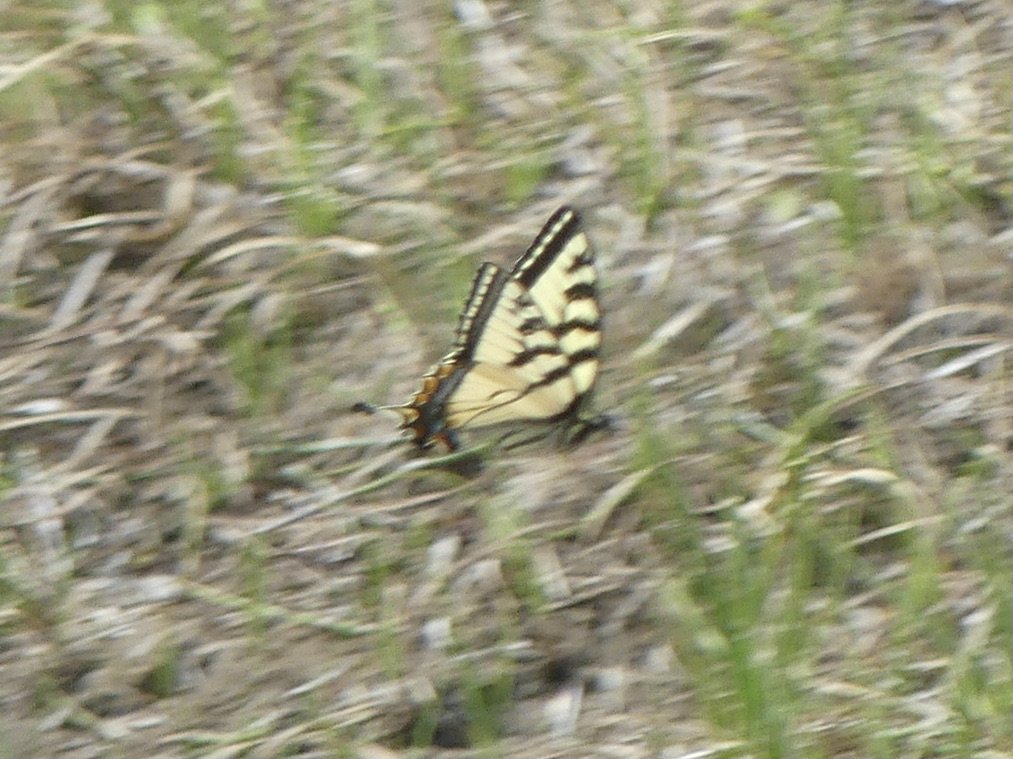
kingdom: Animalia
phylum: Arthropoda
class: Insecta
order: Lepidoptera
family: Papilionidae
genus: Pterourus
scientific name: Pterourus canadensis
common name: Canadian Tiger Swallowtail
